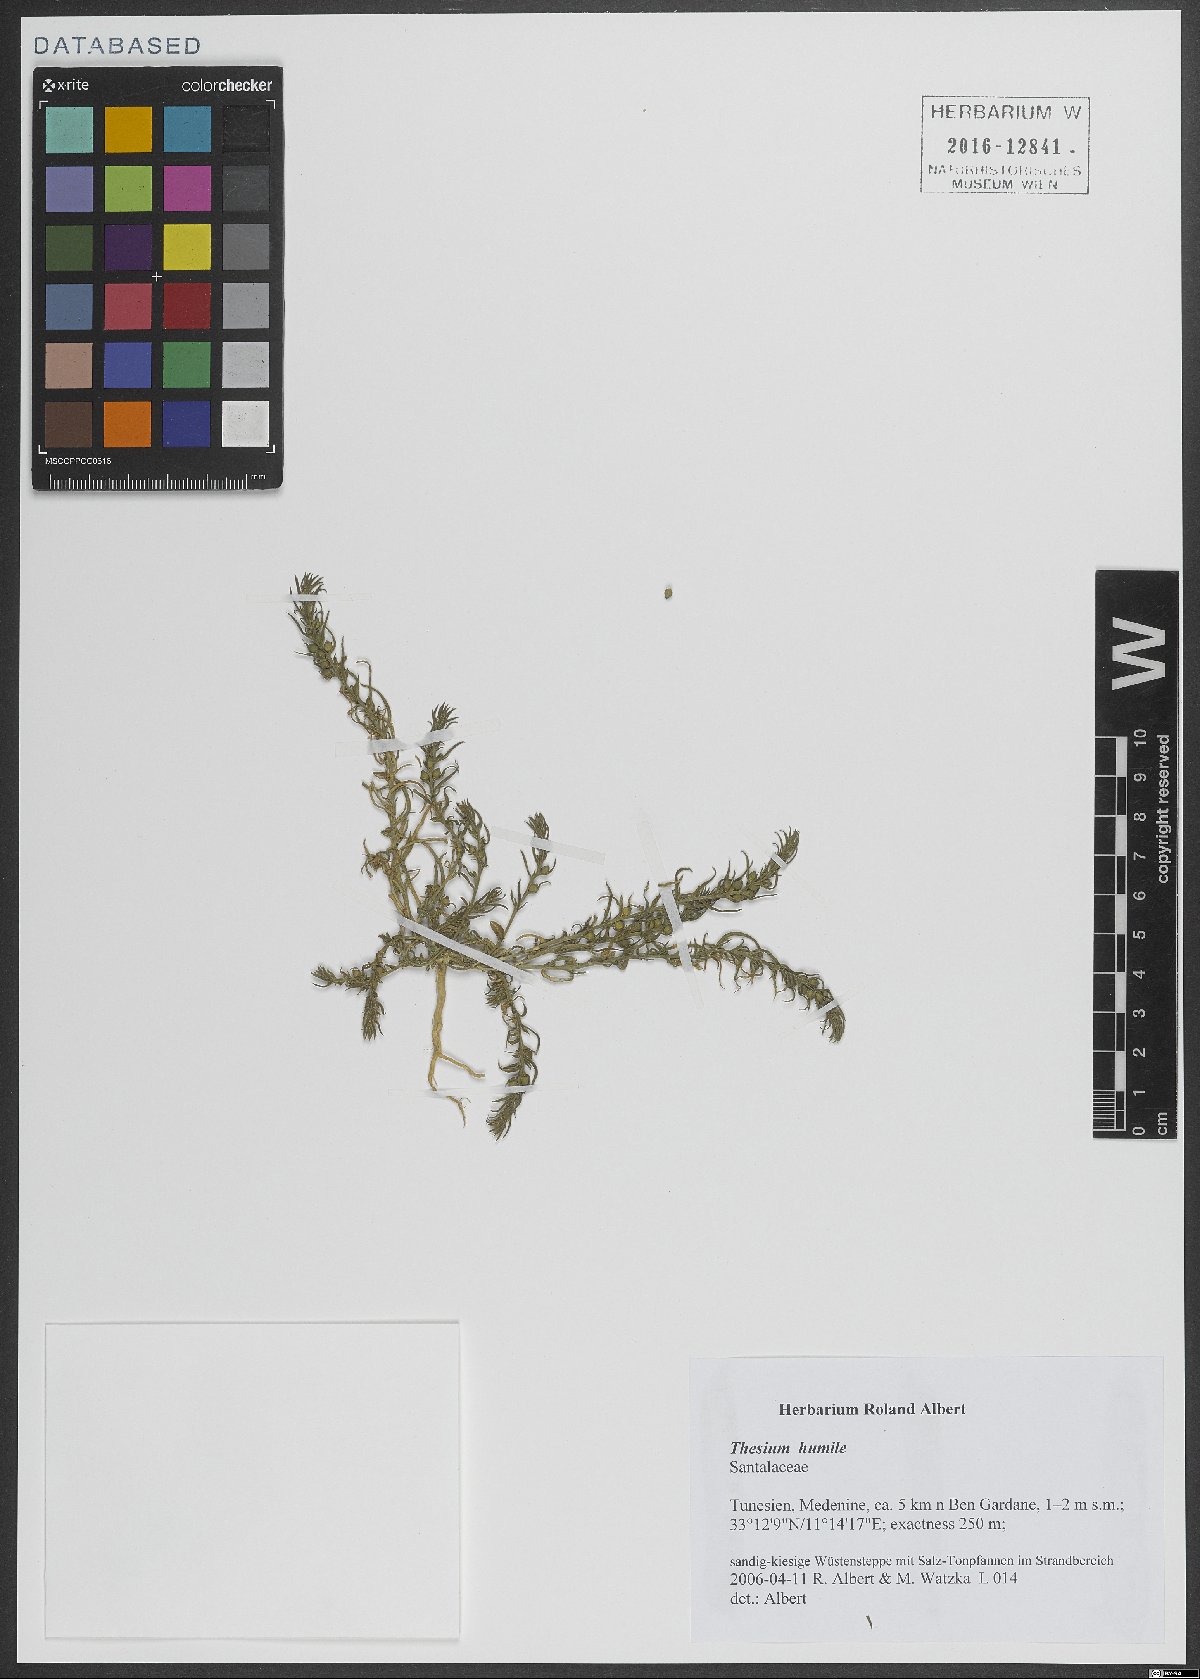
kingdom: Plantae
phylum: Tracheophyta
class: Magnoliopsida
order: Santalales
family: Thesiaceae
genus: Thesium
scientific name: Thesium humile
